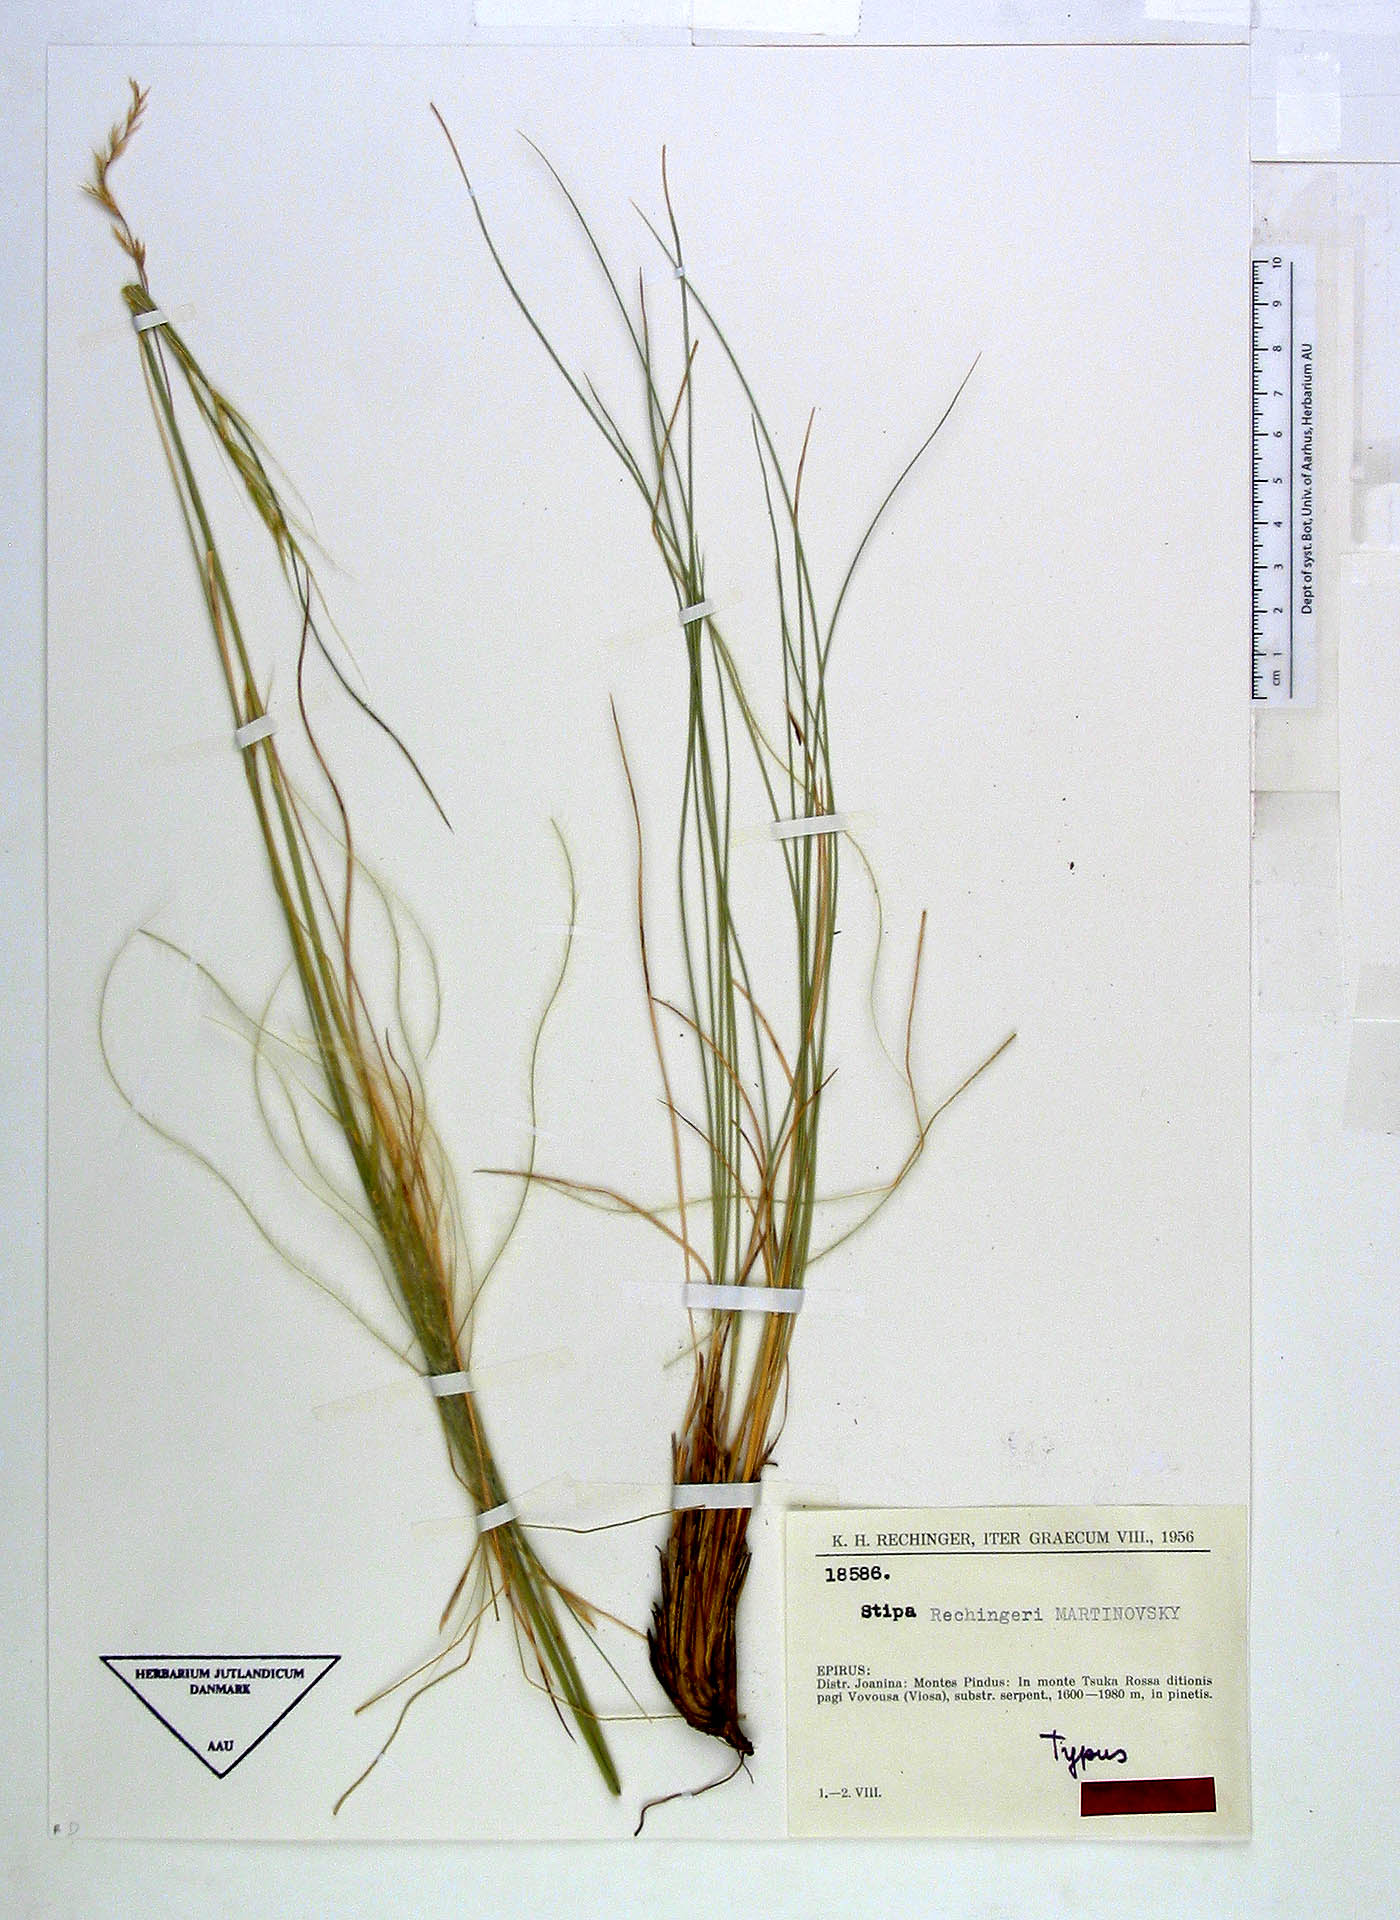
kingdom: Plantae
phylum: Tracheophyta
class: Liliopsida
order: Poales
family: Poaceae
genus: Stipa
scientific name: Stipa rechingeri
